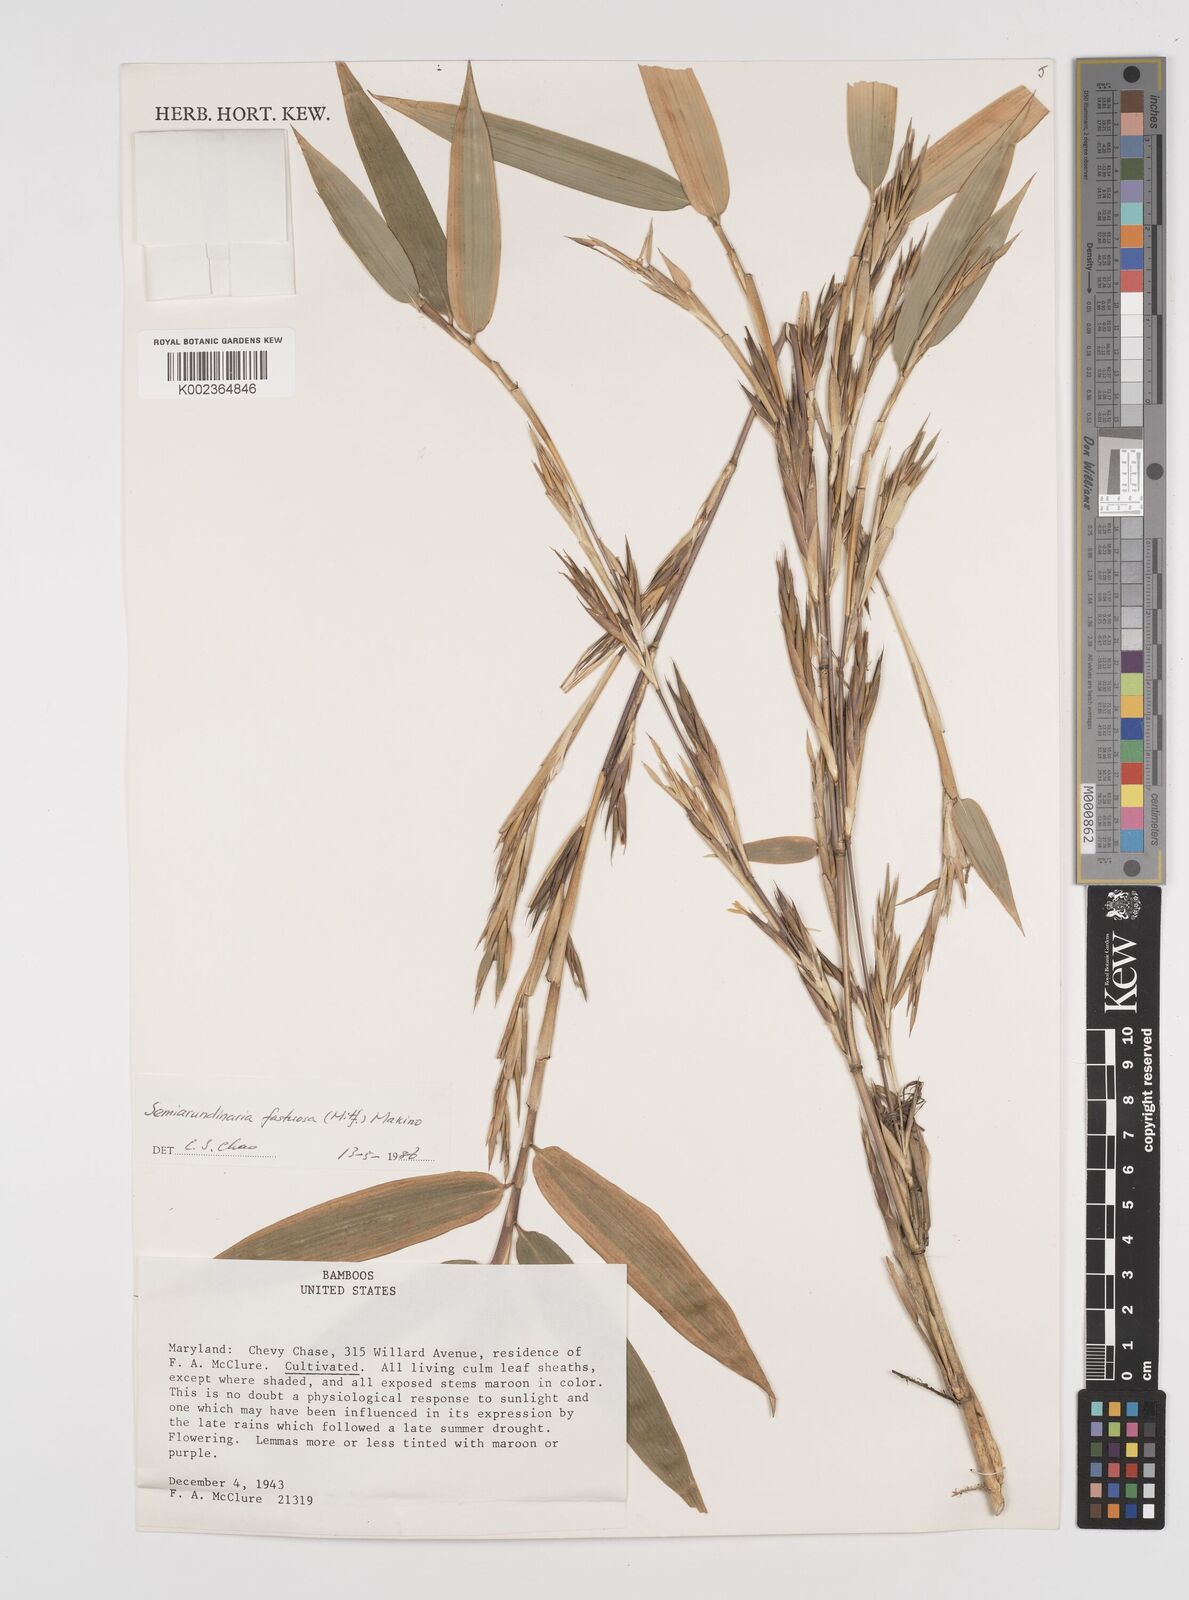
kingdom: Plantae
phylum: Tracheophyta
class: Liliopsida
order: Poales
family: Poaceae
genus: Semiarundinaria
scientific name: Semiarundinaria fastuosa
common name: Narihira bamboo
